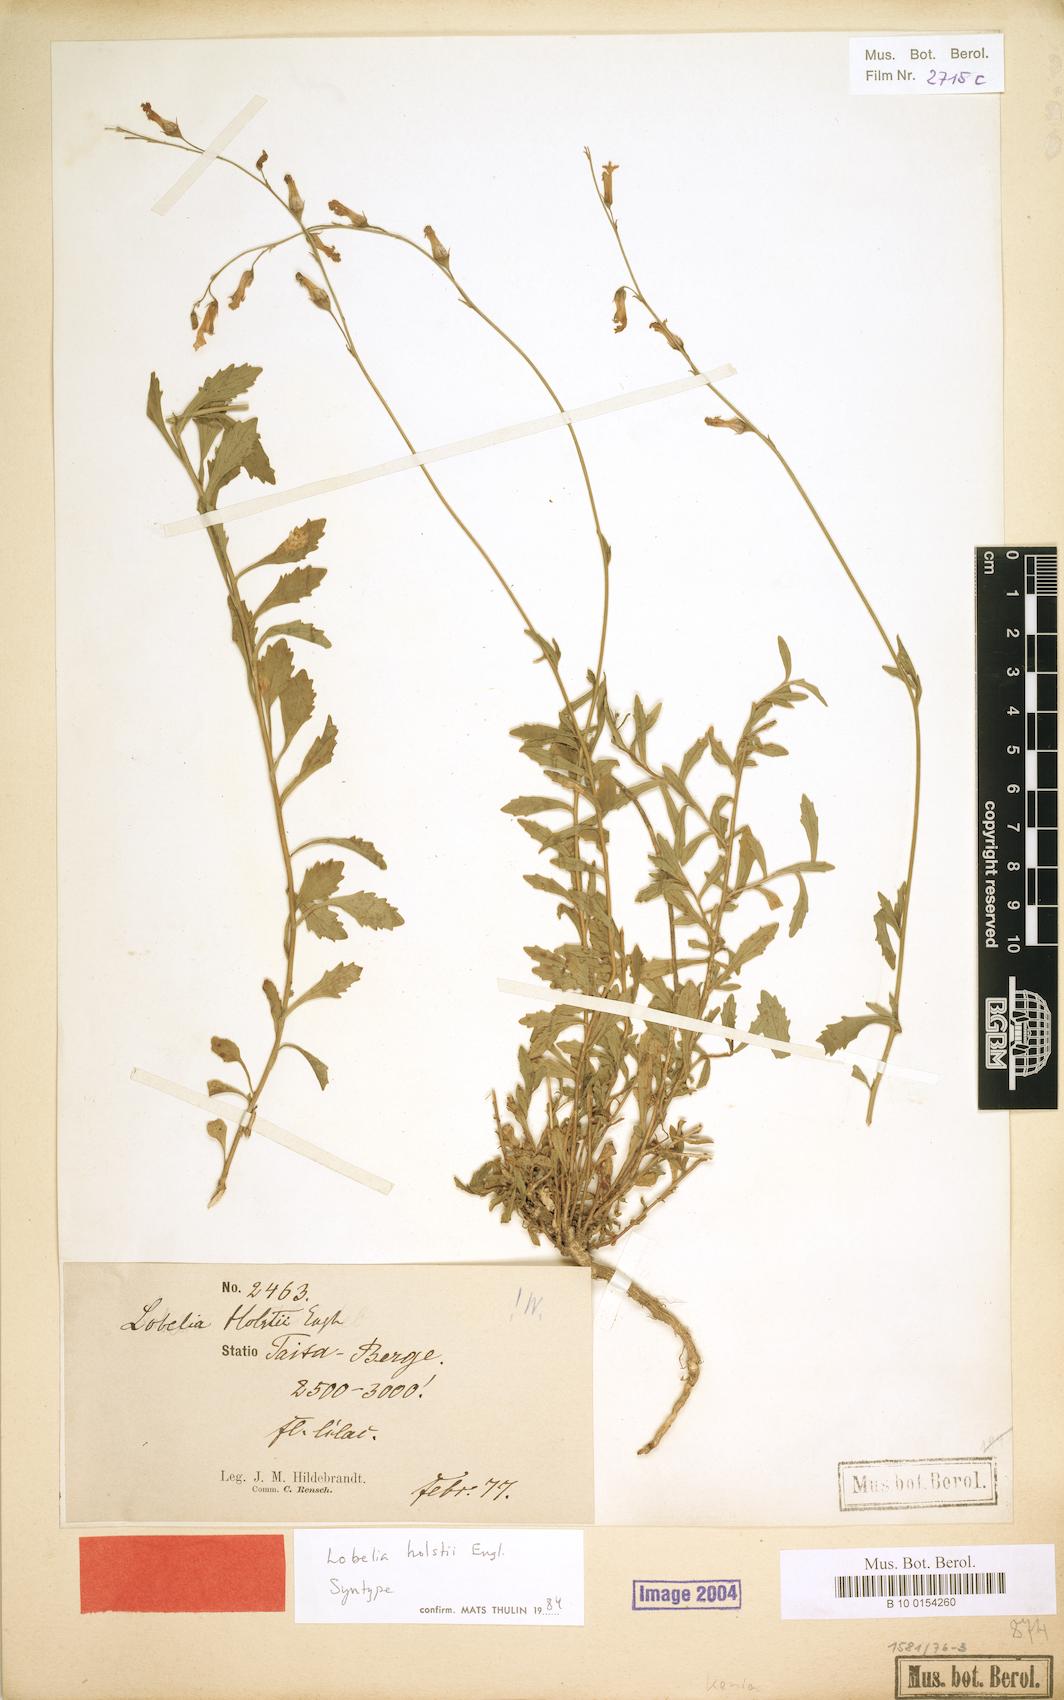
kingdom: Plantae
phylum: Tracheophyta
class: Magnoliopsida
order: Asterales
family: Campanulaceae
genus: Lobelia
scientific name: Lobelia holstii
